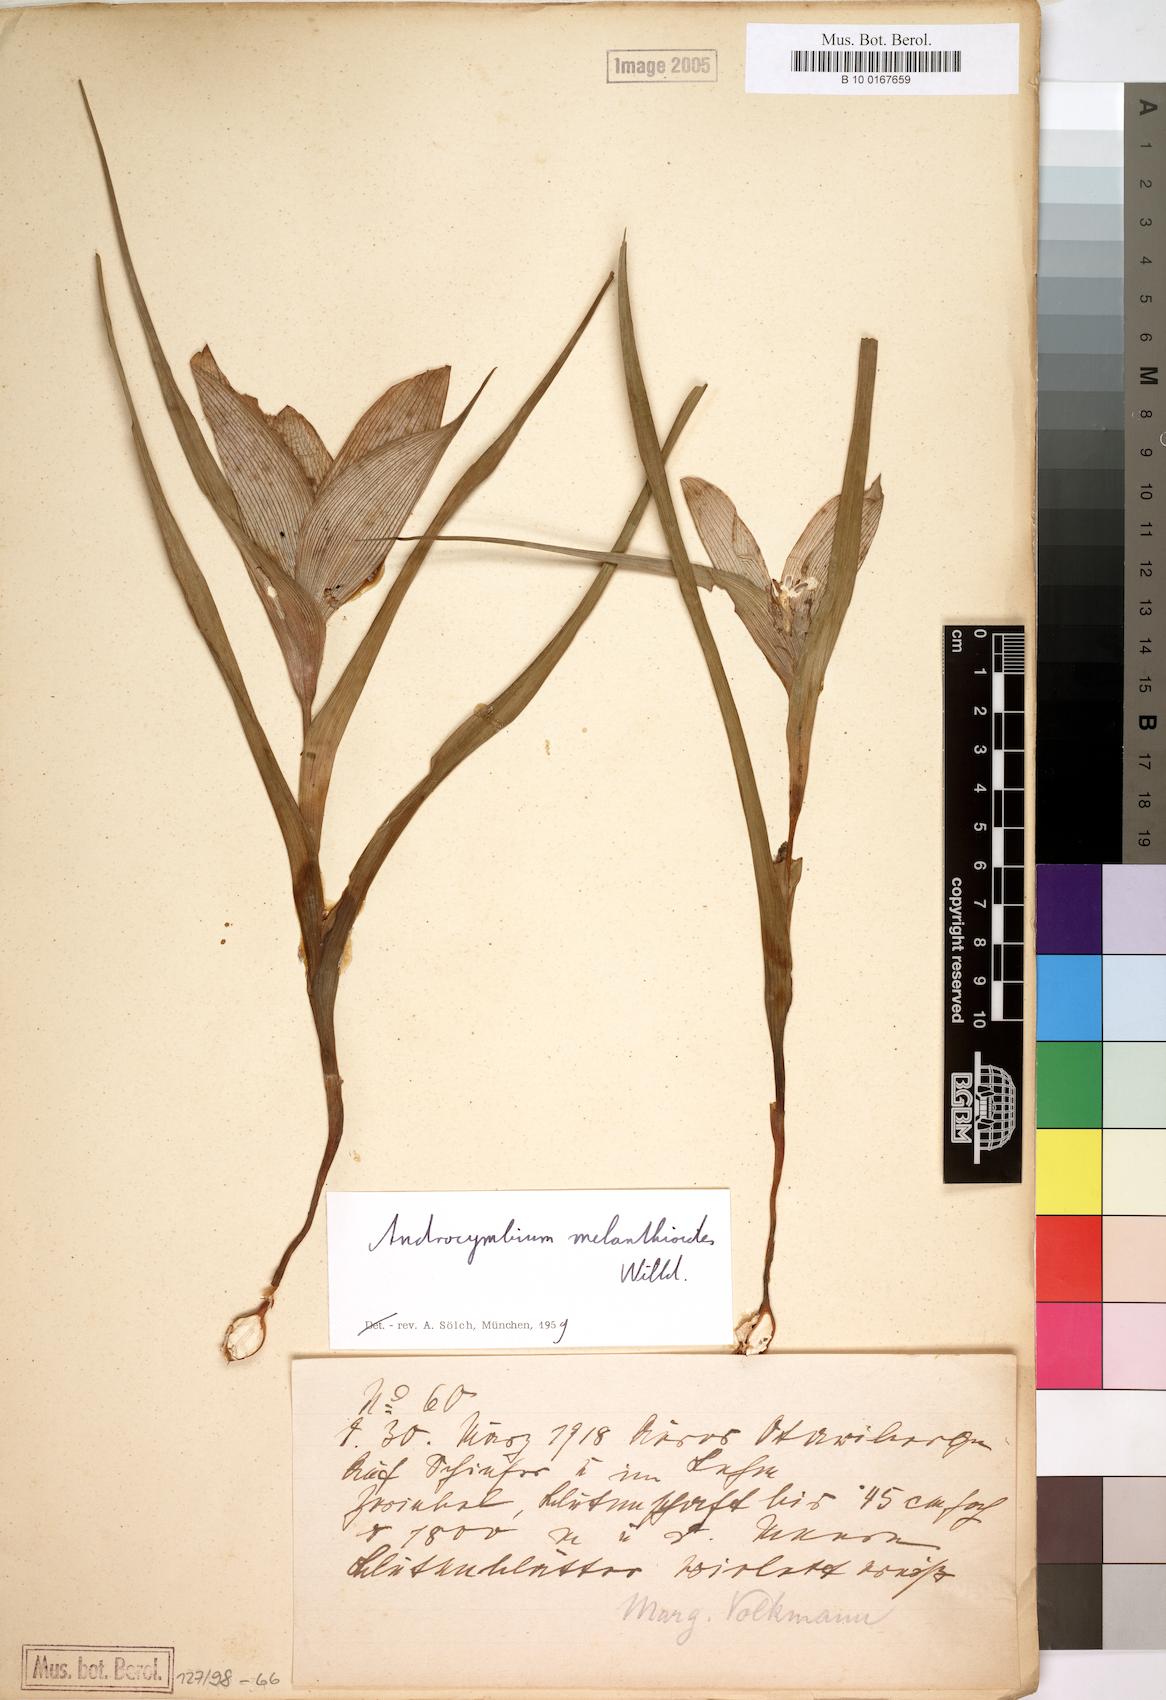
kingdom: Plantae
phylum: Tracheophyta
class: Liliopsida
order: Liliales
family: Colchicaceae
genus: Colchicum
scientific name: Colchicum melanthioides
